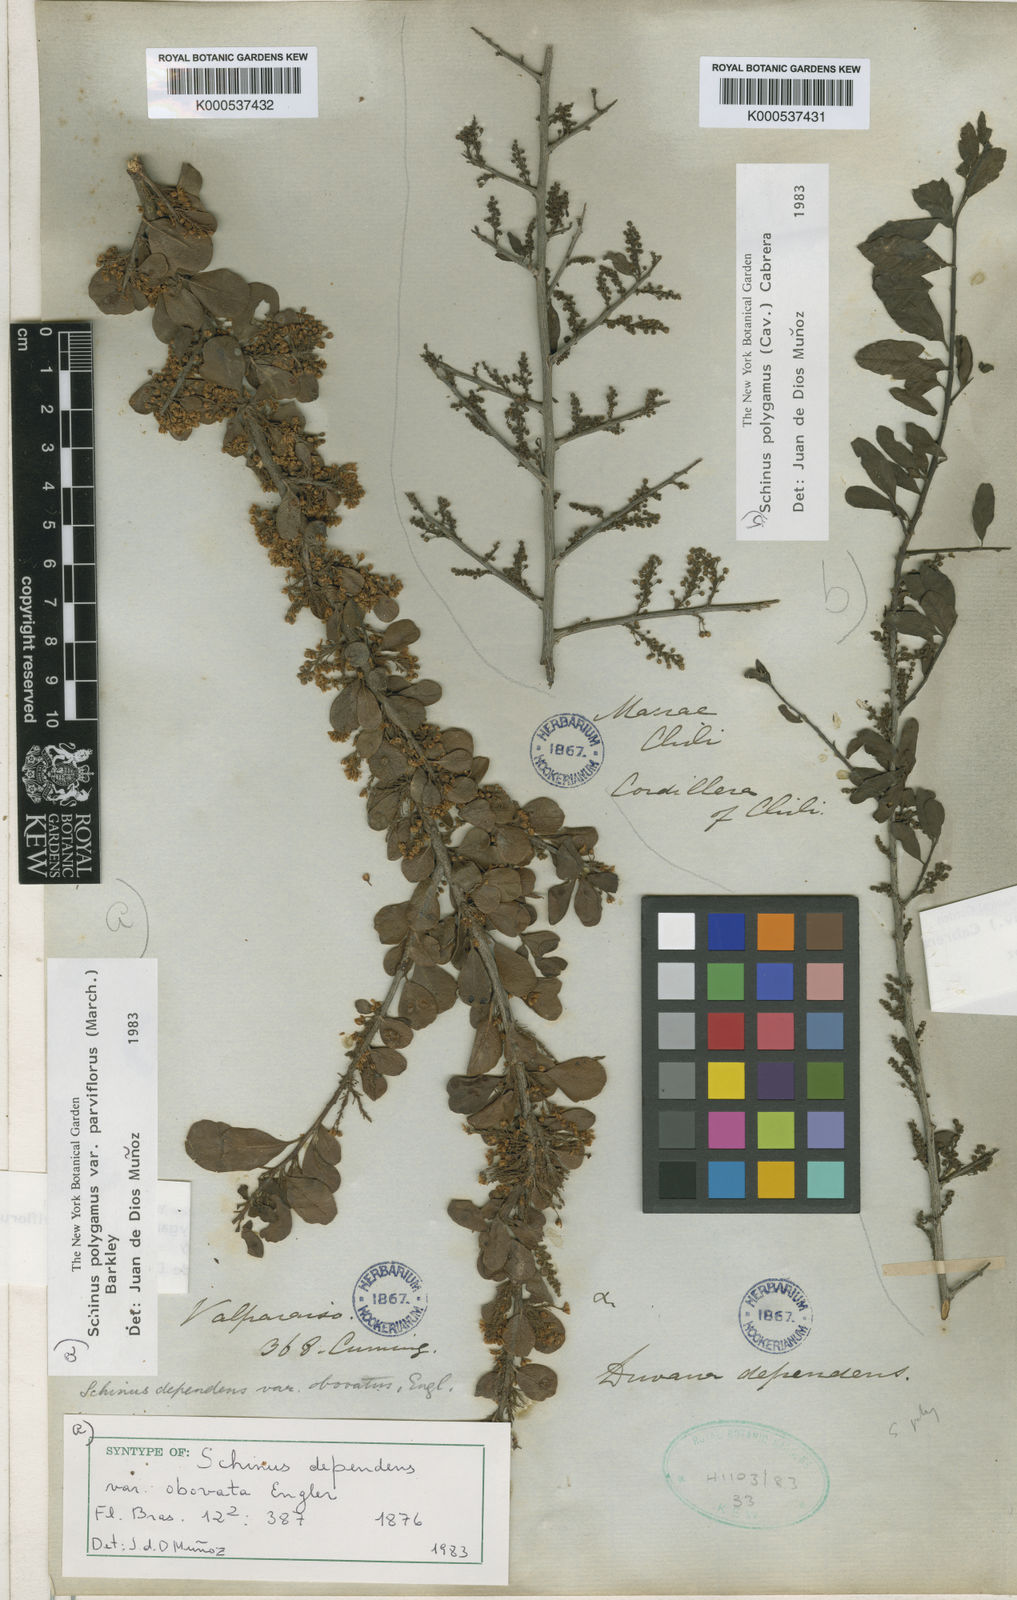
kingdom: Plantae
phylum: Tracheophyta
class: Magnoliopsida
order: Sapindales
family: Anacardiaceae
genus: Schinus
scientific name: Schinus polygama
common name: Hardee peppertree
